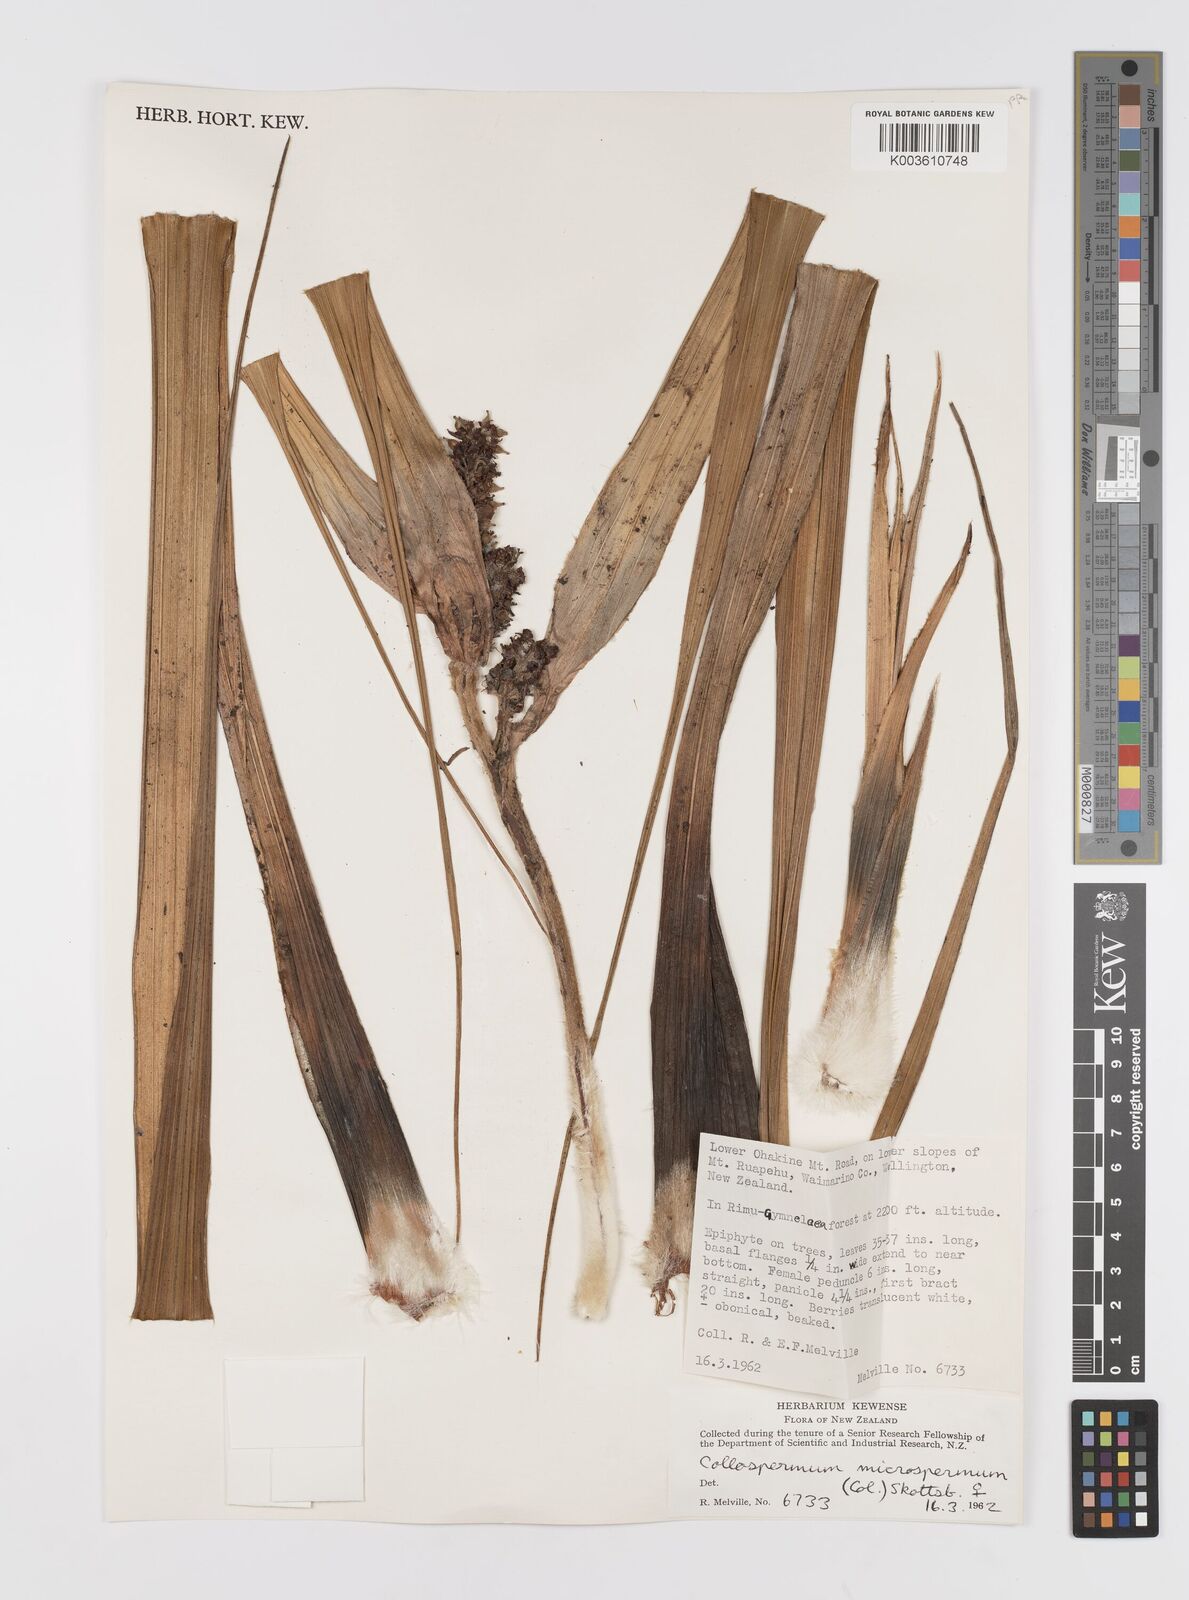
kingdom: Plantae
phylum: Tracheophyta
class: Liliopsida
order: Asparagales
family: Asteliaceae
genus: Astelia
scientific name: Astelia microsperma
